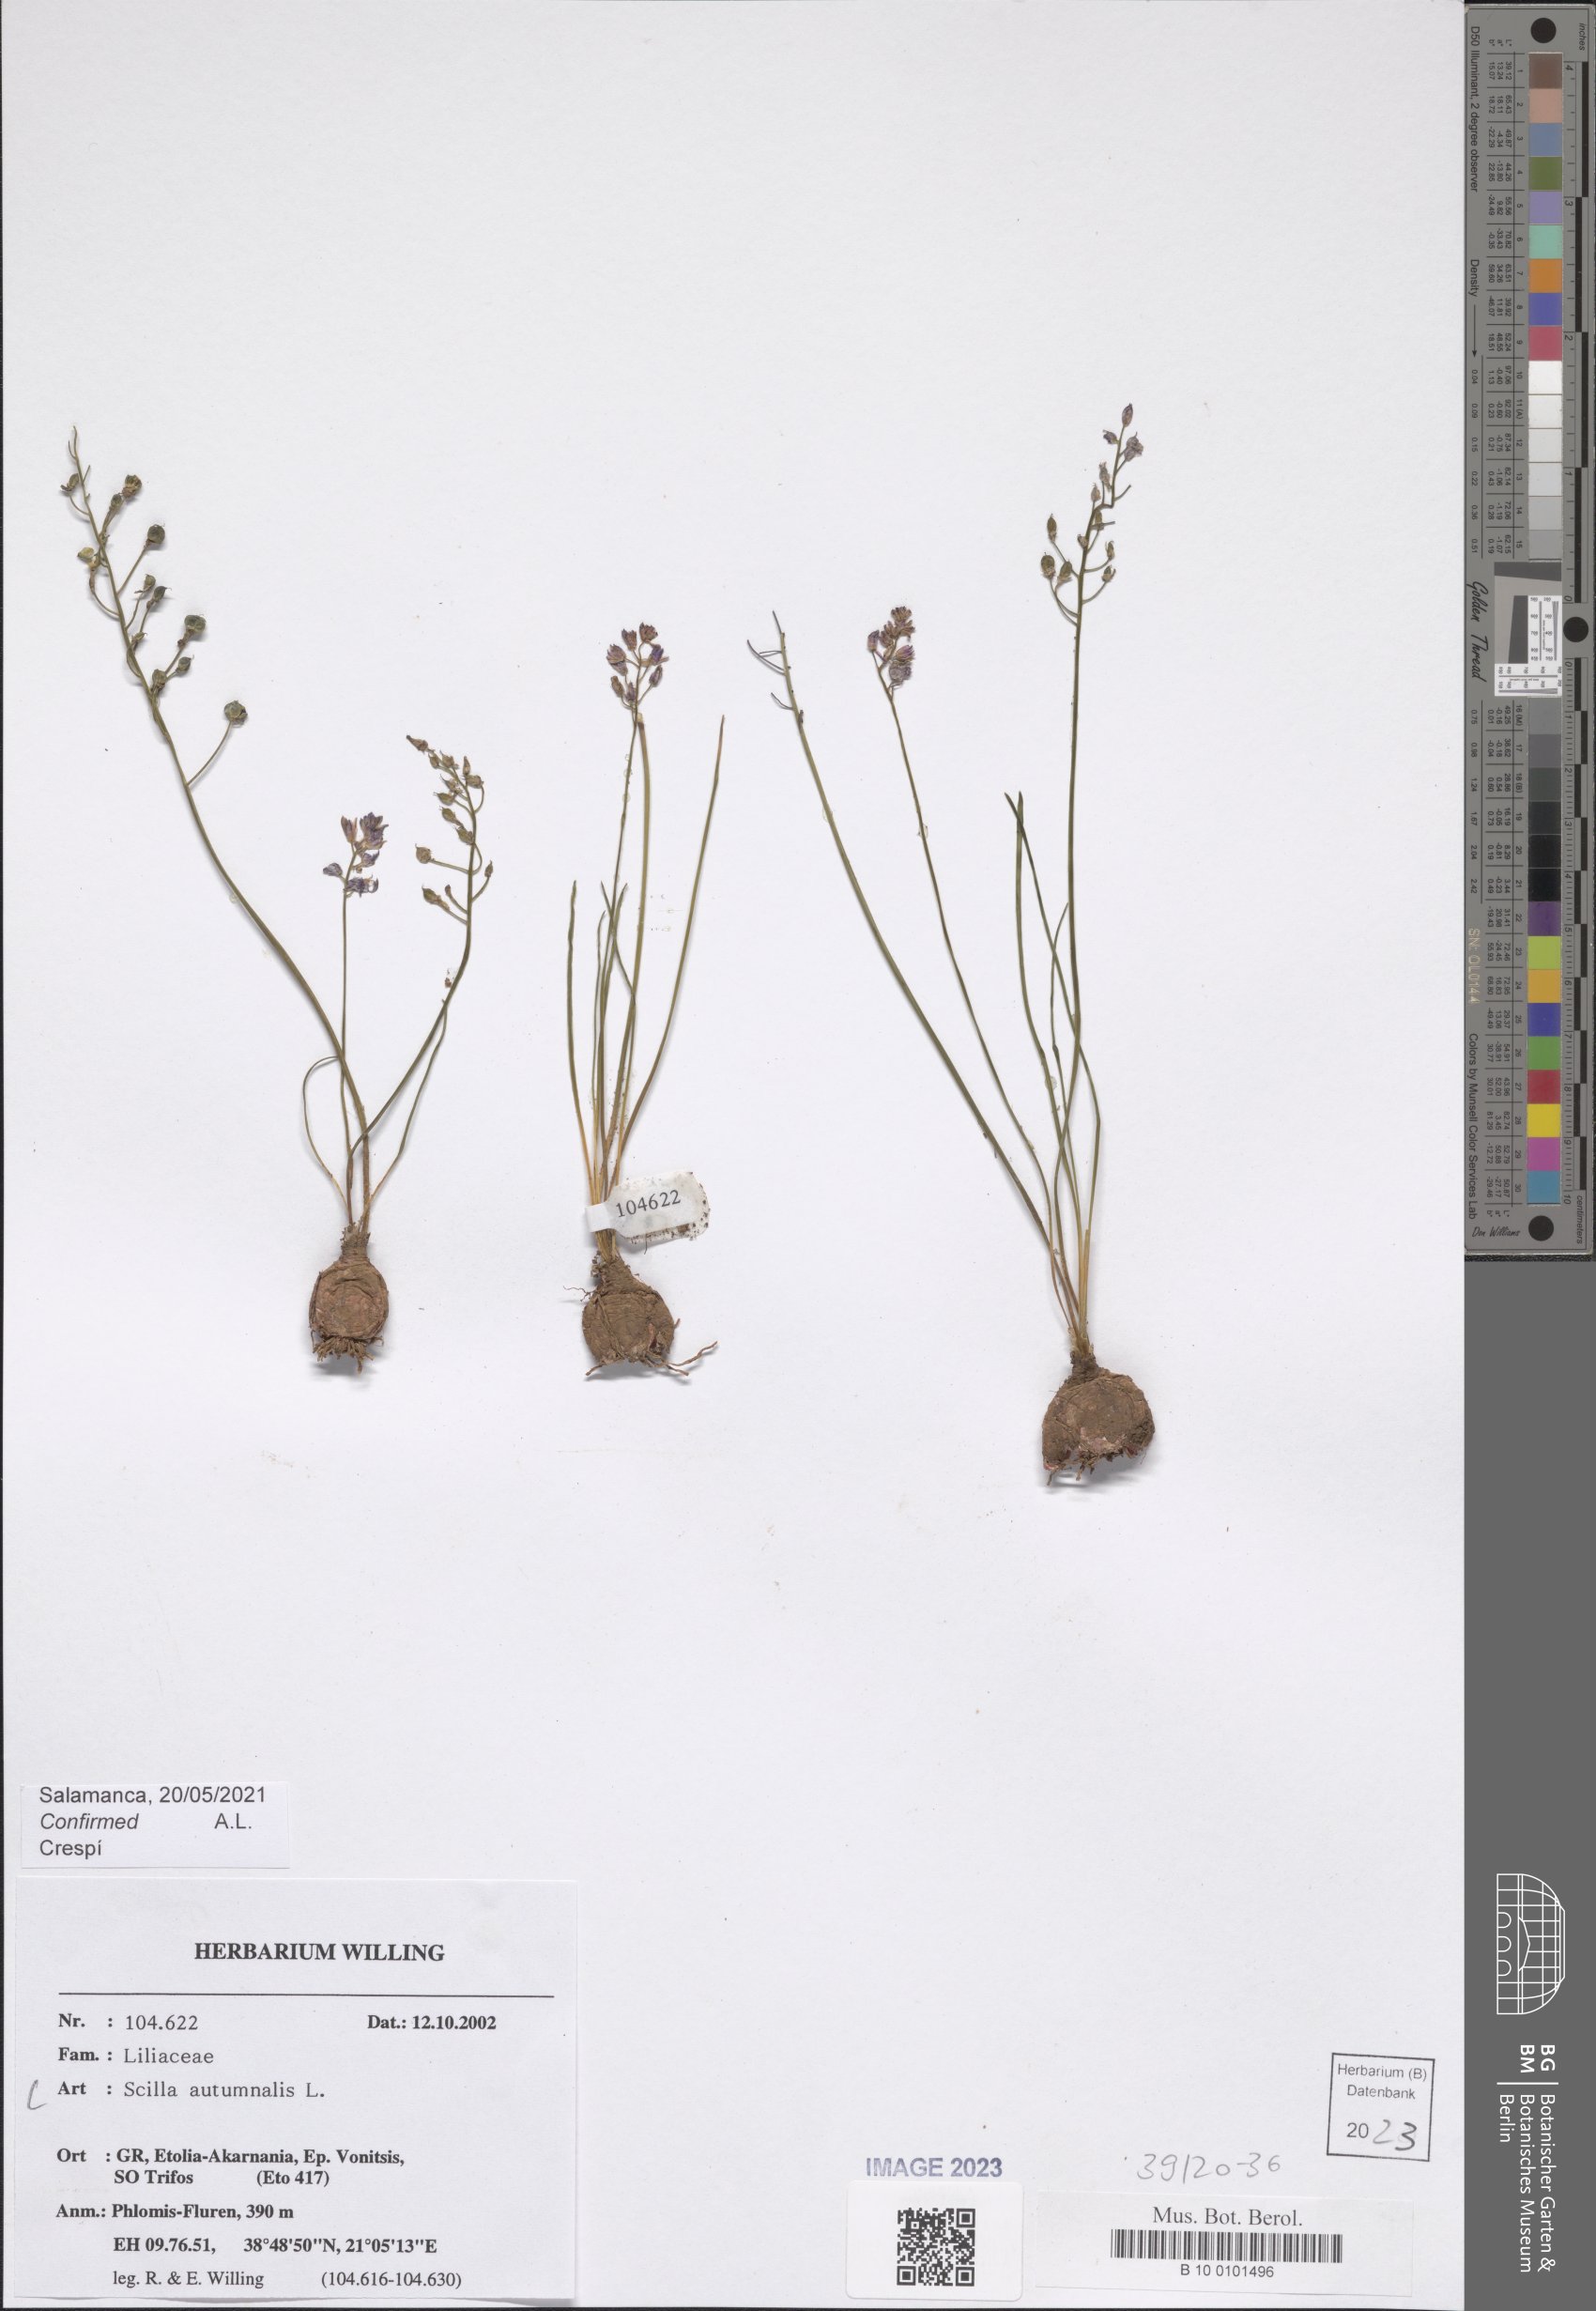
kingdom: Plantae
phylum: Tracheophyta
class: Liliopsida
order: Asparagales
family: Asparagaceae
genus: Prospero
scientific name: Prospero autumnale
